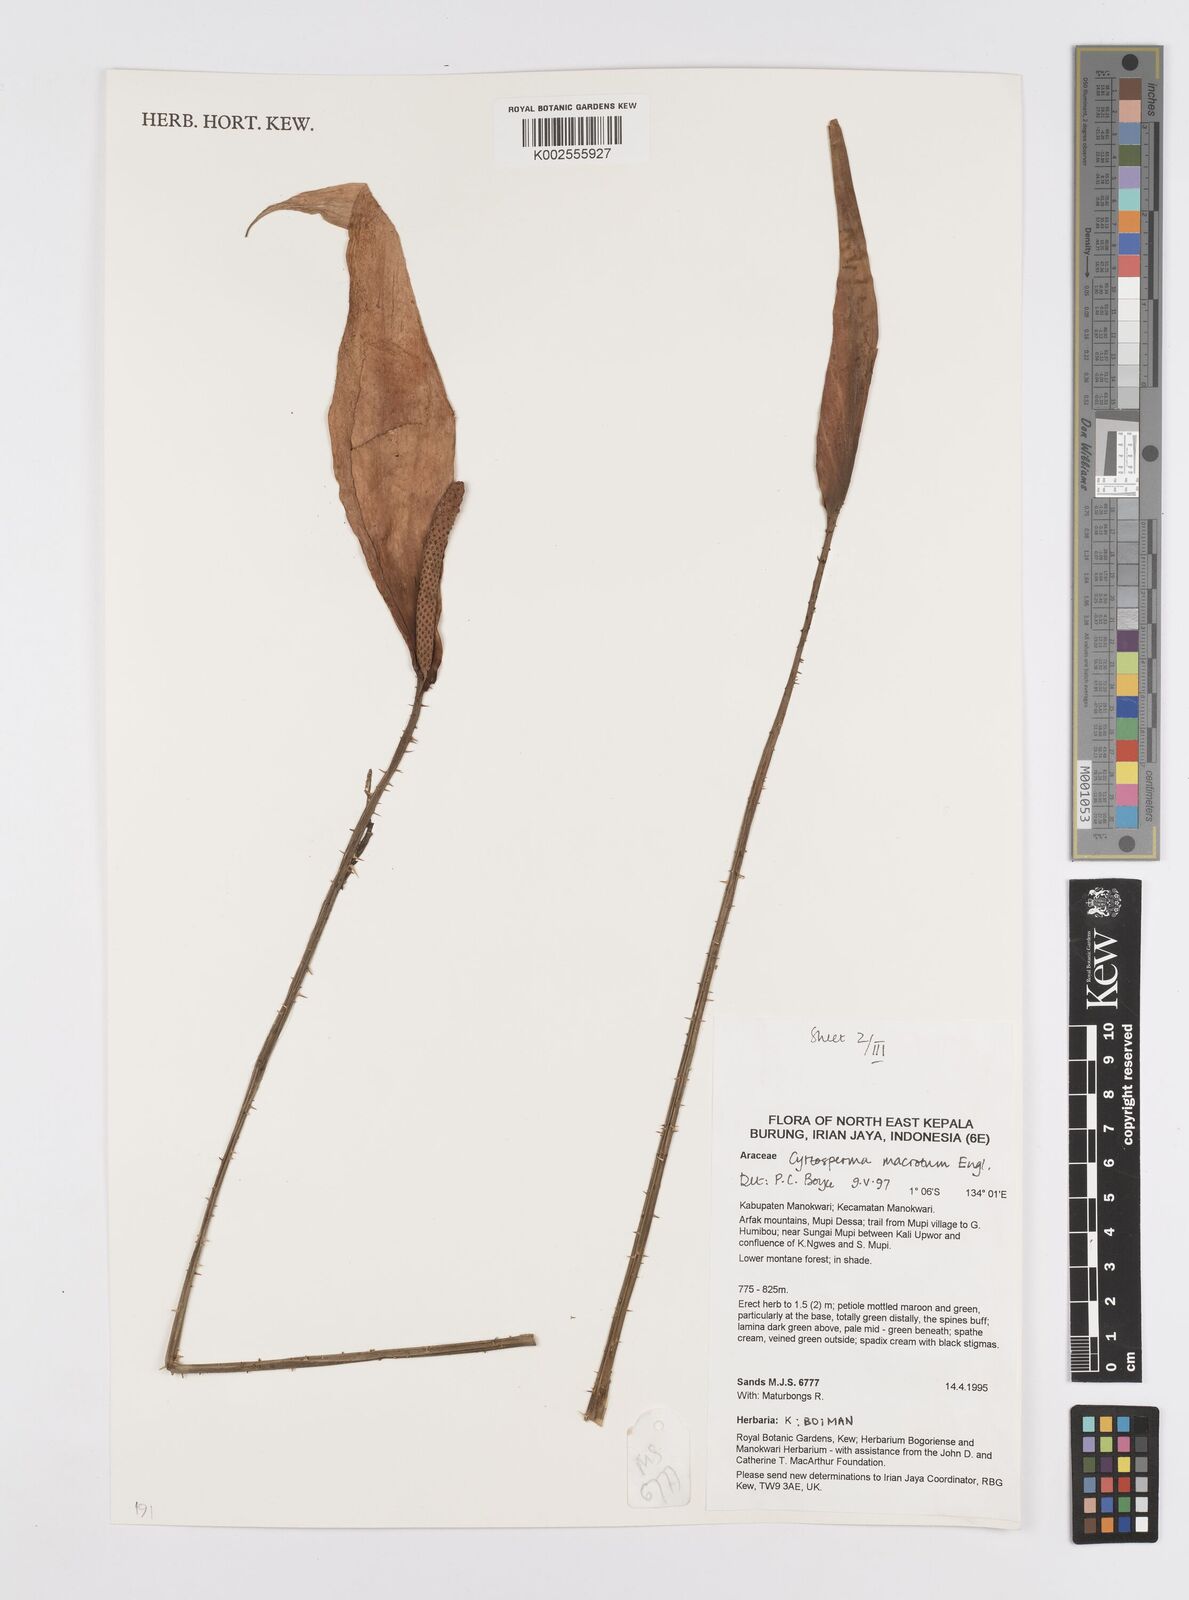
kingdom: Plantae
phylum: Tracheophyta
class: Liliopsida
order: Alismatales
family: Araceae
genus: Cyrtosperma
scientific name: Cyrtosperma macrotum
